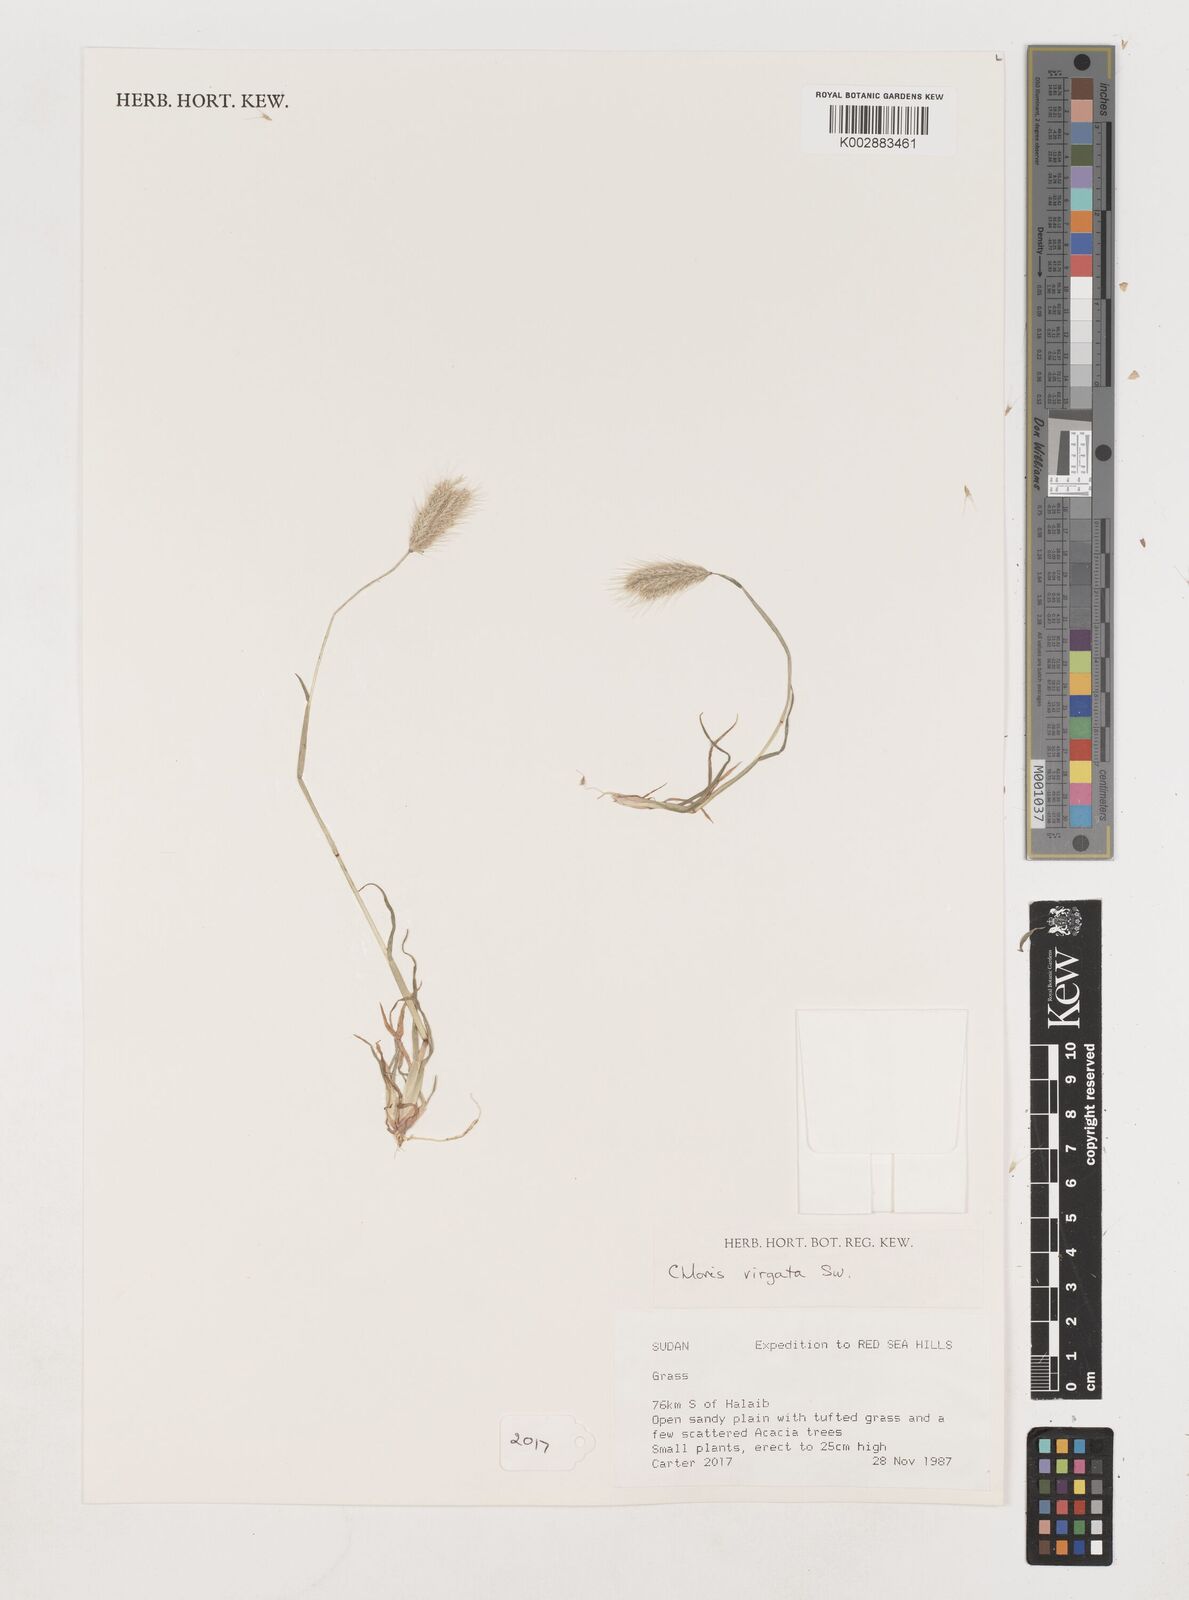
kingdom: Plantae
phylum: Tracheophyta
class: Liliopsida
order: Poales
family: Poaceae
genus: Chloris
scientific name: Chloris virgata
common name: Feathery rhodes-grass
